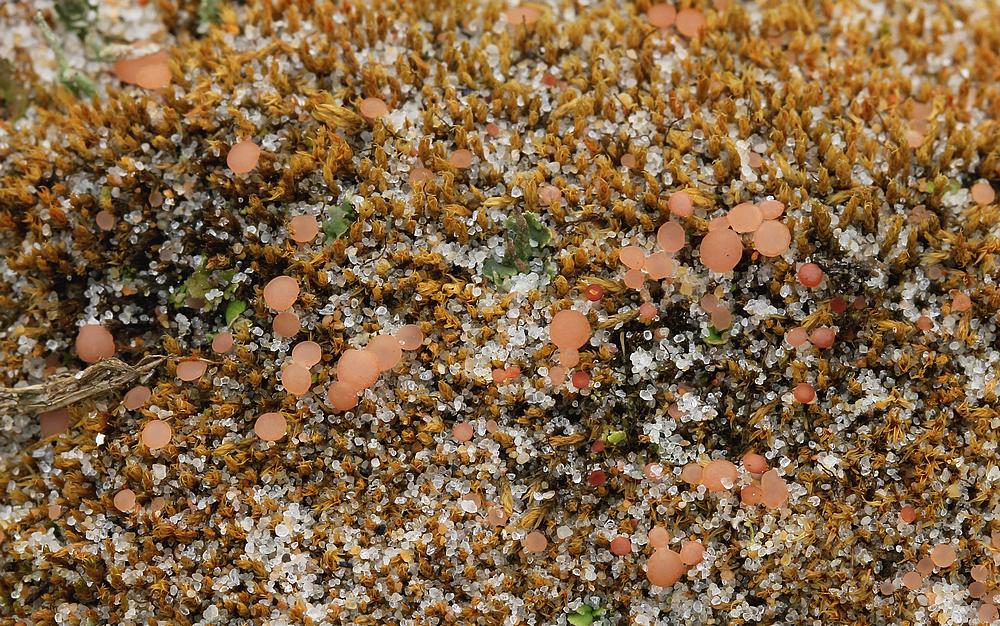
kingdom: Fungi
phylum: Ascomycota
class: Leotiomycetes
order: Helotiales
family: Hyaloscyphaceae
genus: Roseodiscus
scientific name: Roseodiscus formosus
